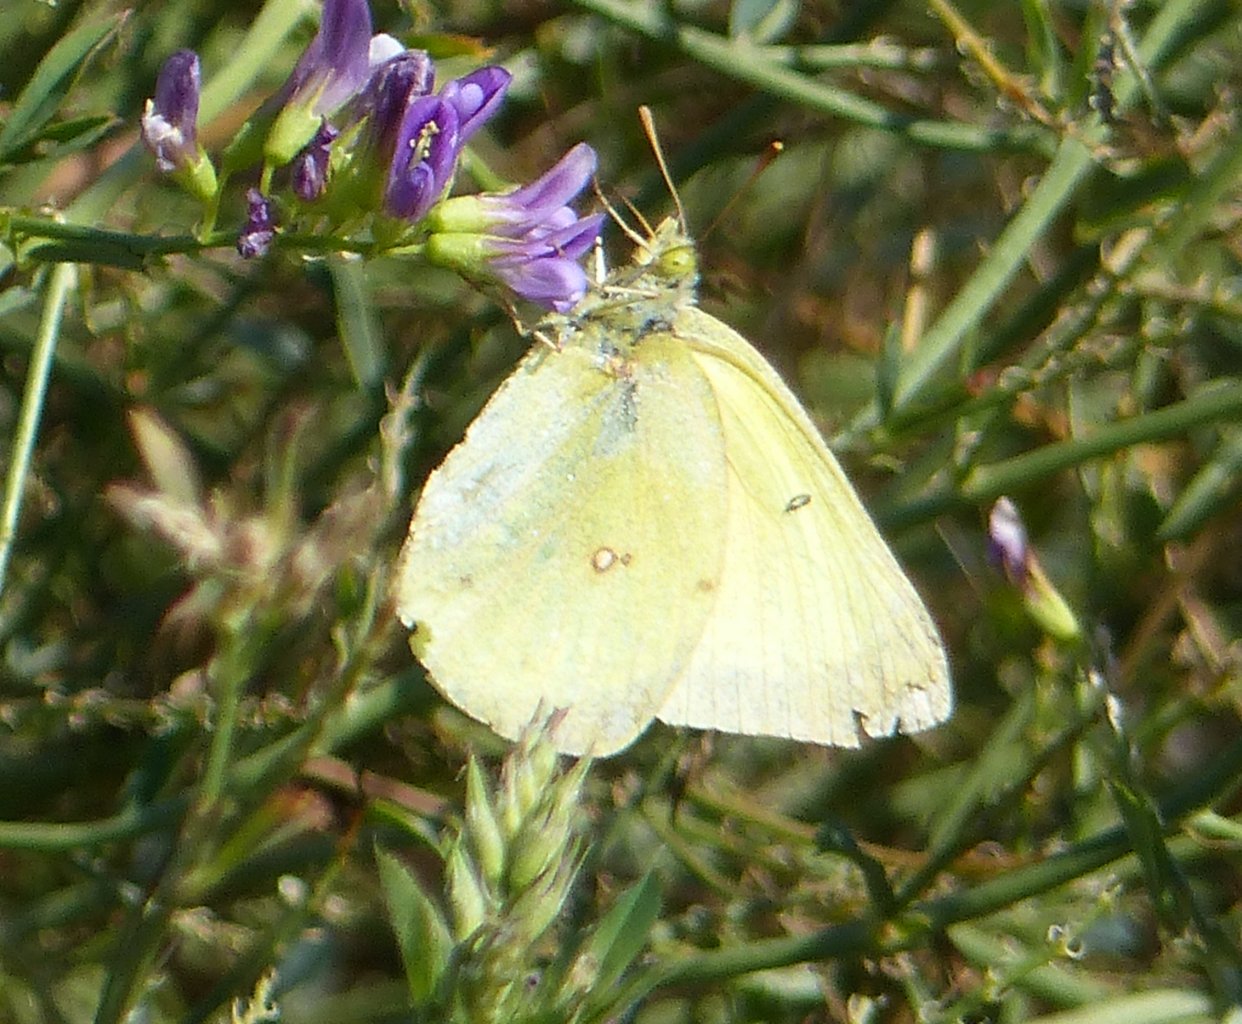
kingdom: Animalia
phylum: Arthropoda
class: Insecta
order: Lepidoptera
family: Pieridae
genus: Colias
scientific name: Colias philodice
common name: Clouded Sulphur
